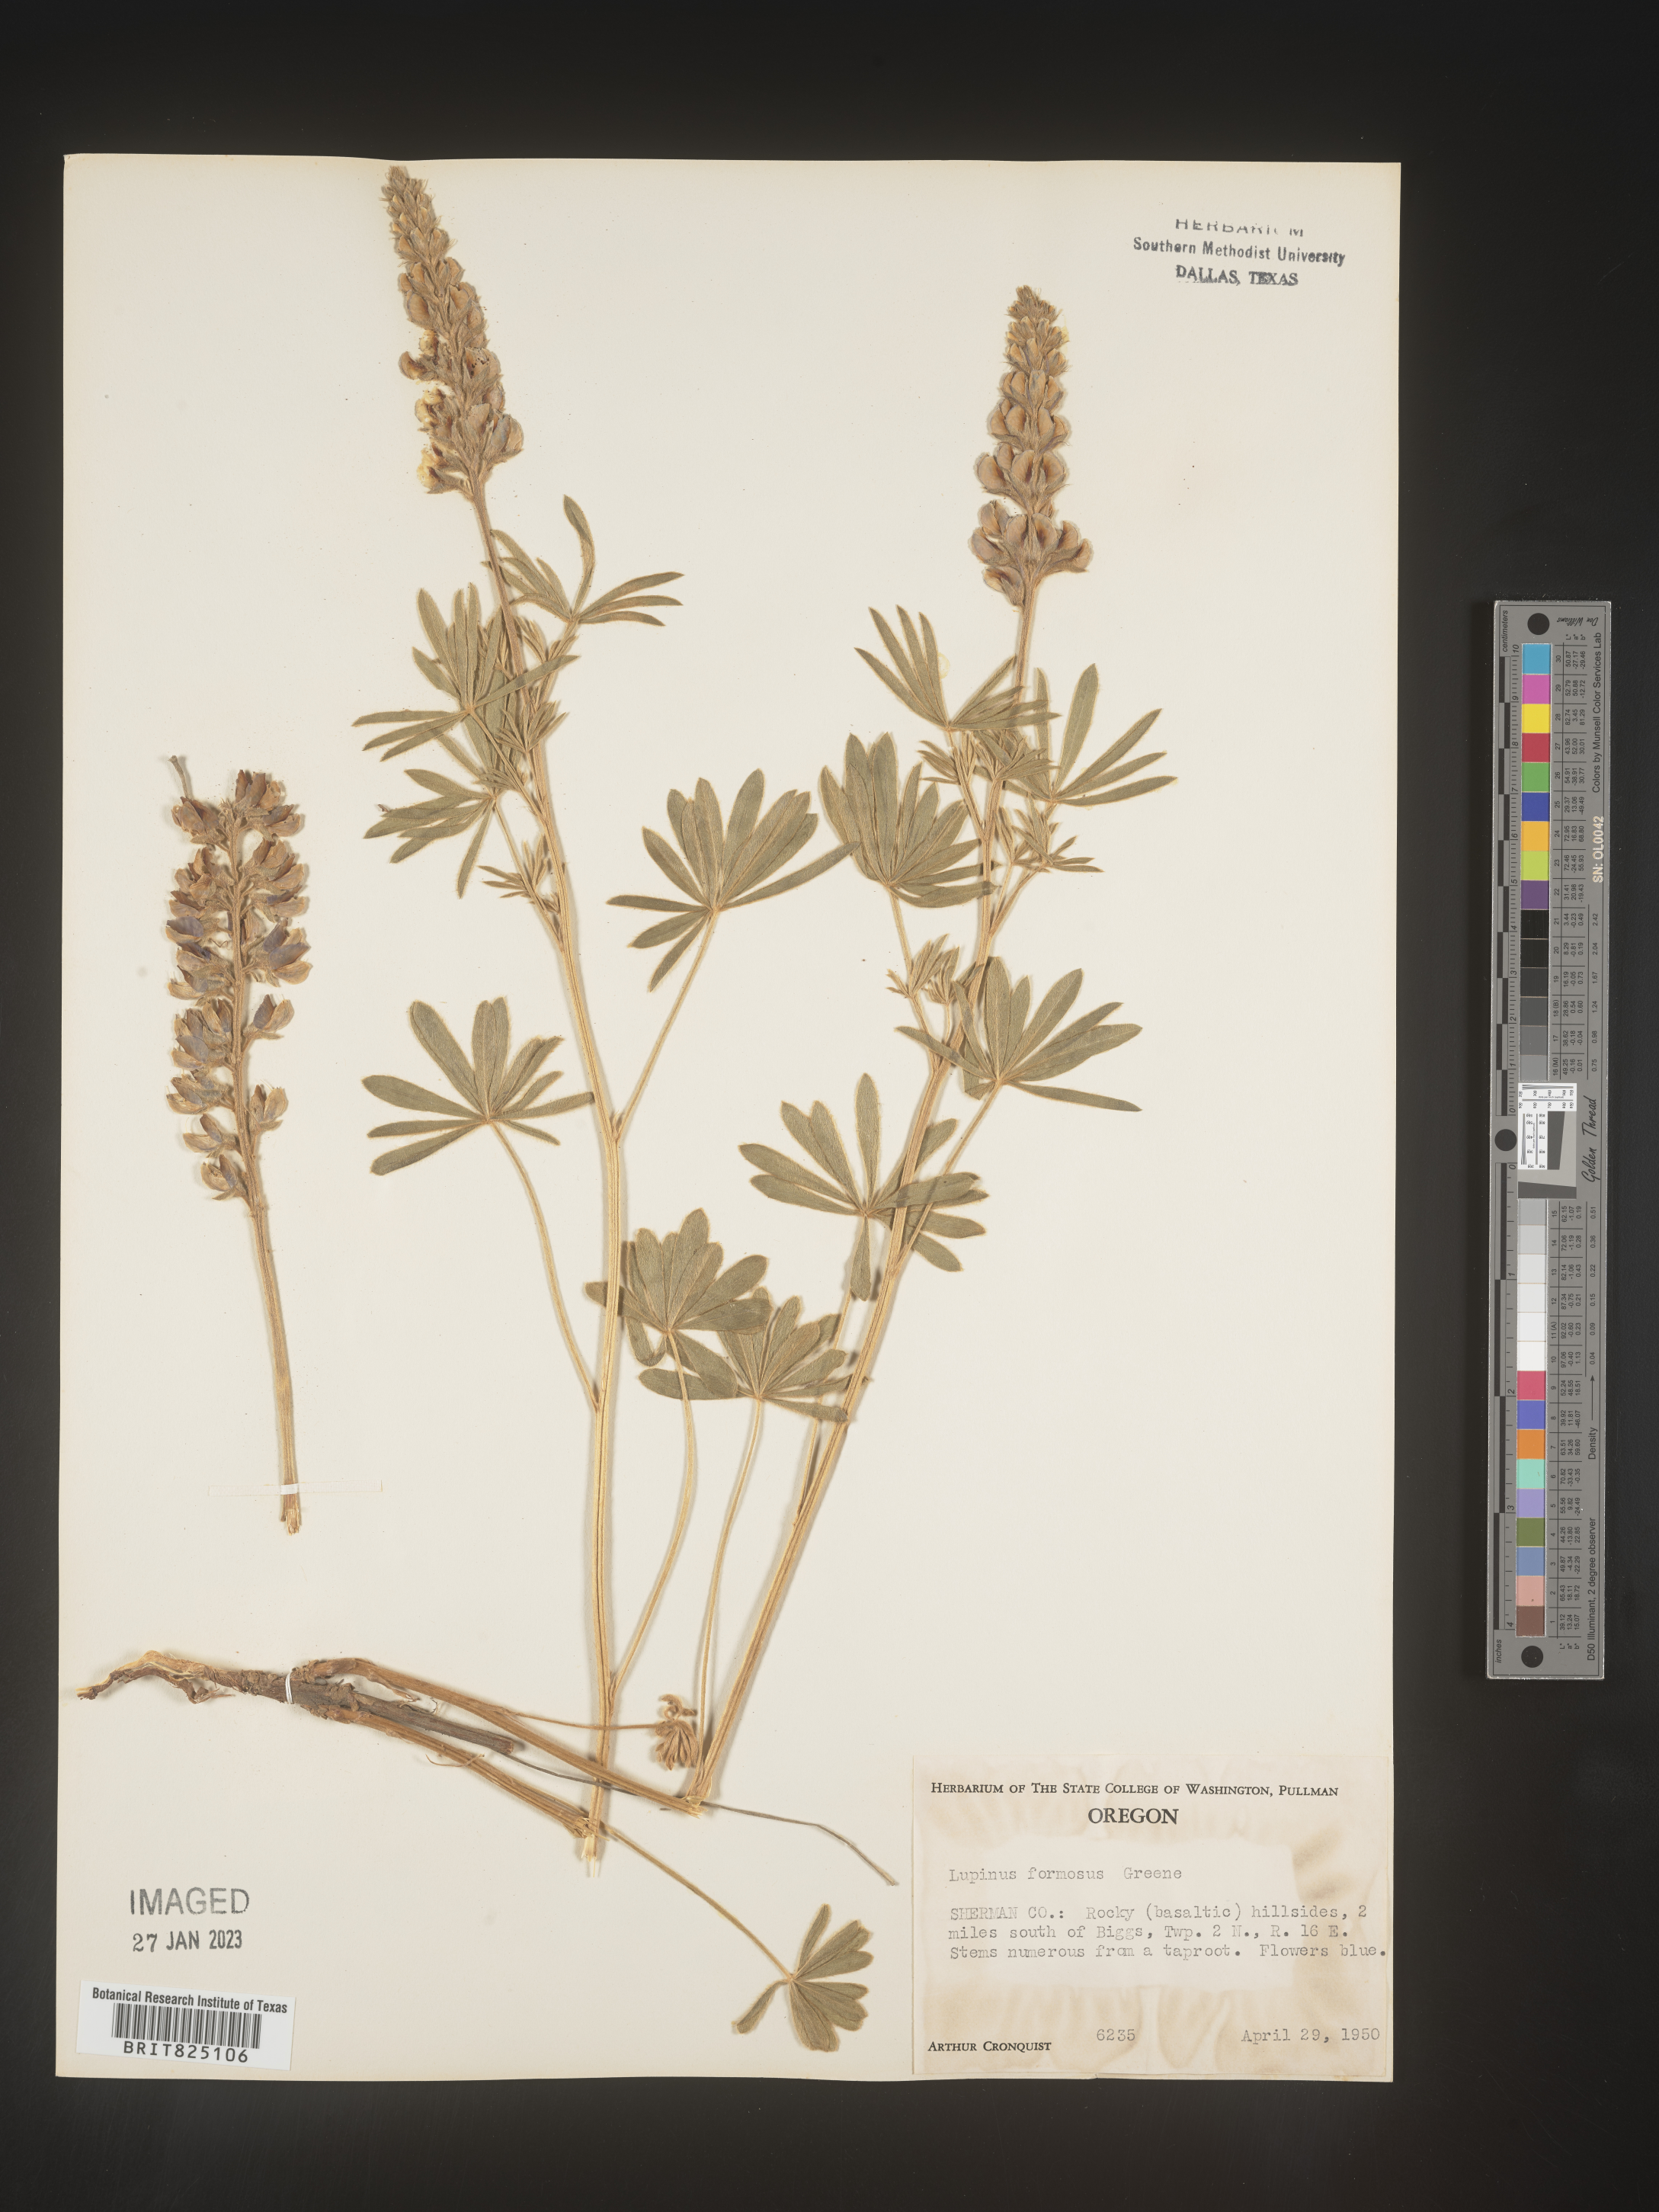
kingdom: Plantae
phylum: Tracheophyta
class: Magnoliopsida
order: Fabales
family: Fabaceae
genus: Lupinus
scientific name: Lupinus
